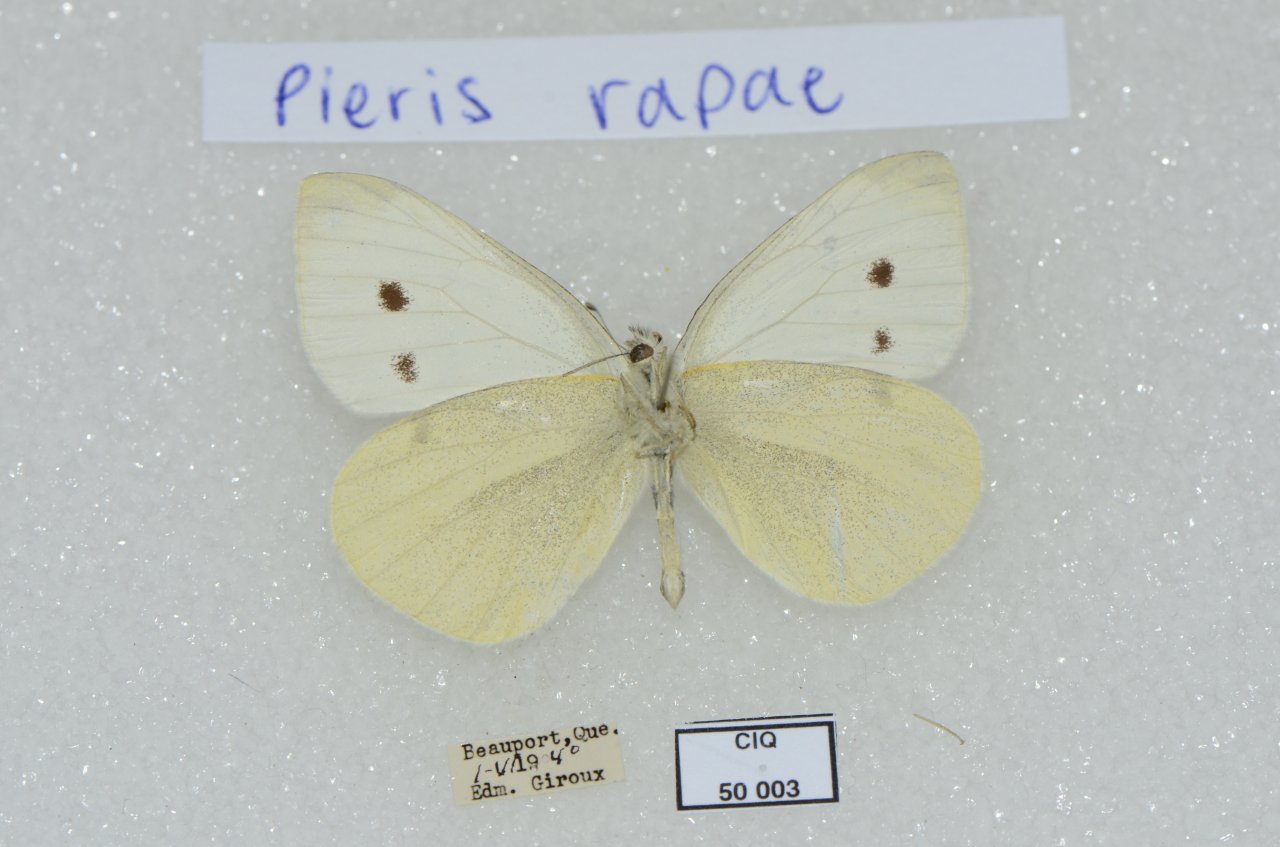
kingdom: Animalia
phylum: Arthropoda
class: Insecta
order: Lepidoptera
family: Pieridae
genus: Pieris
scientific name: Pieris rapae
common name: Cabbage White
